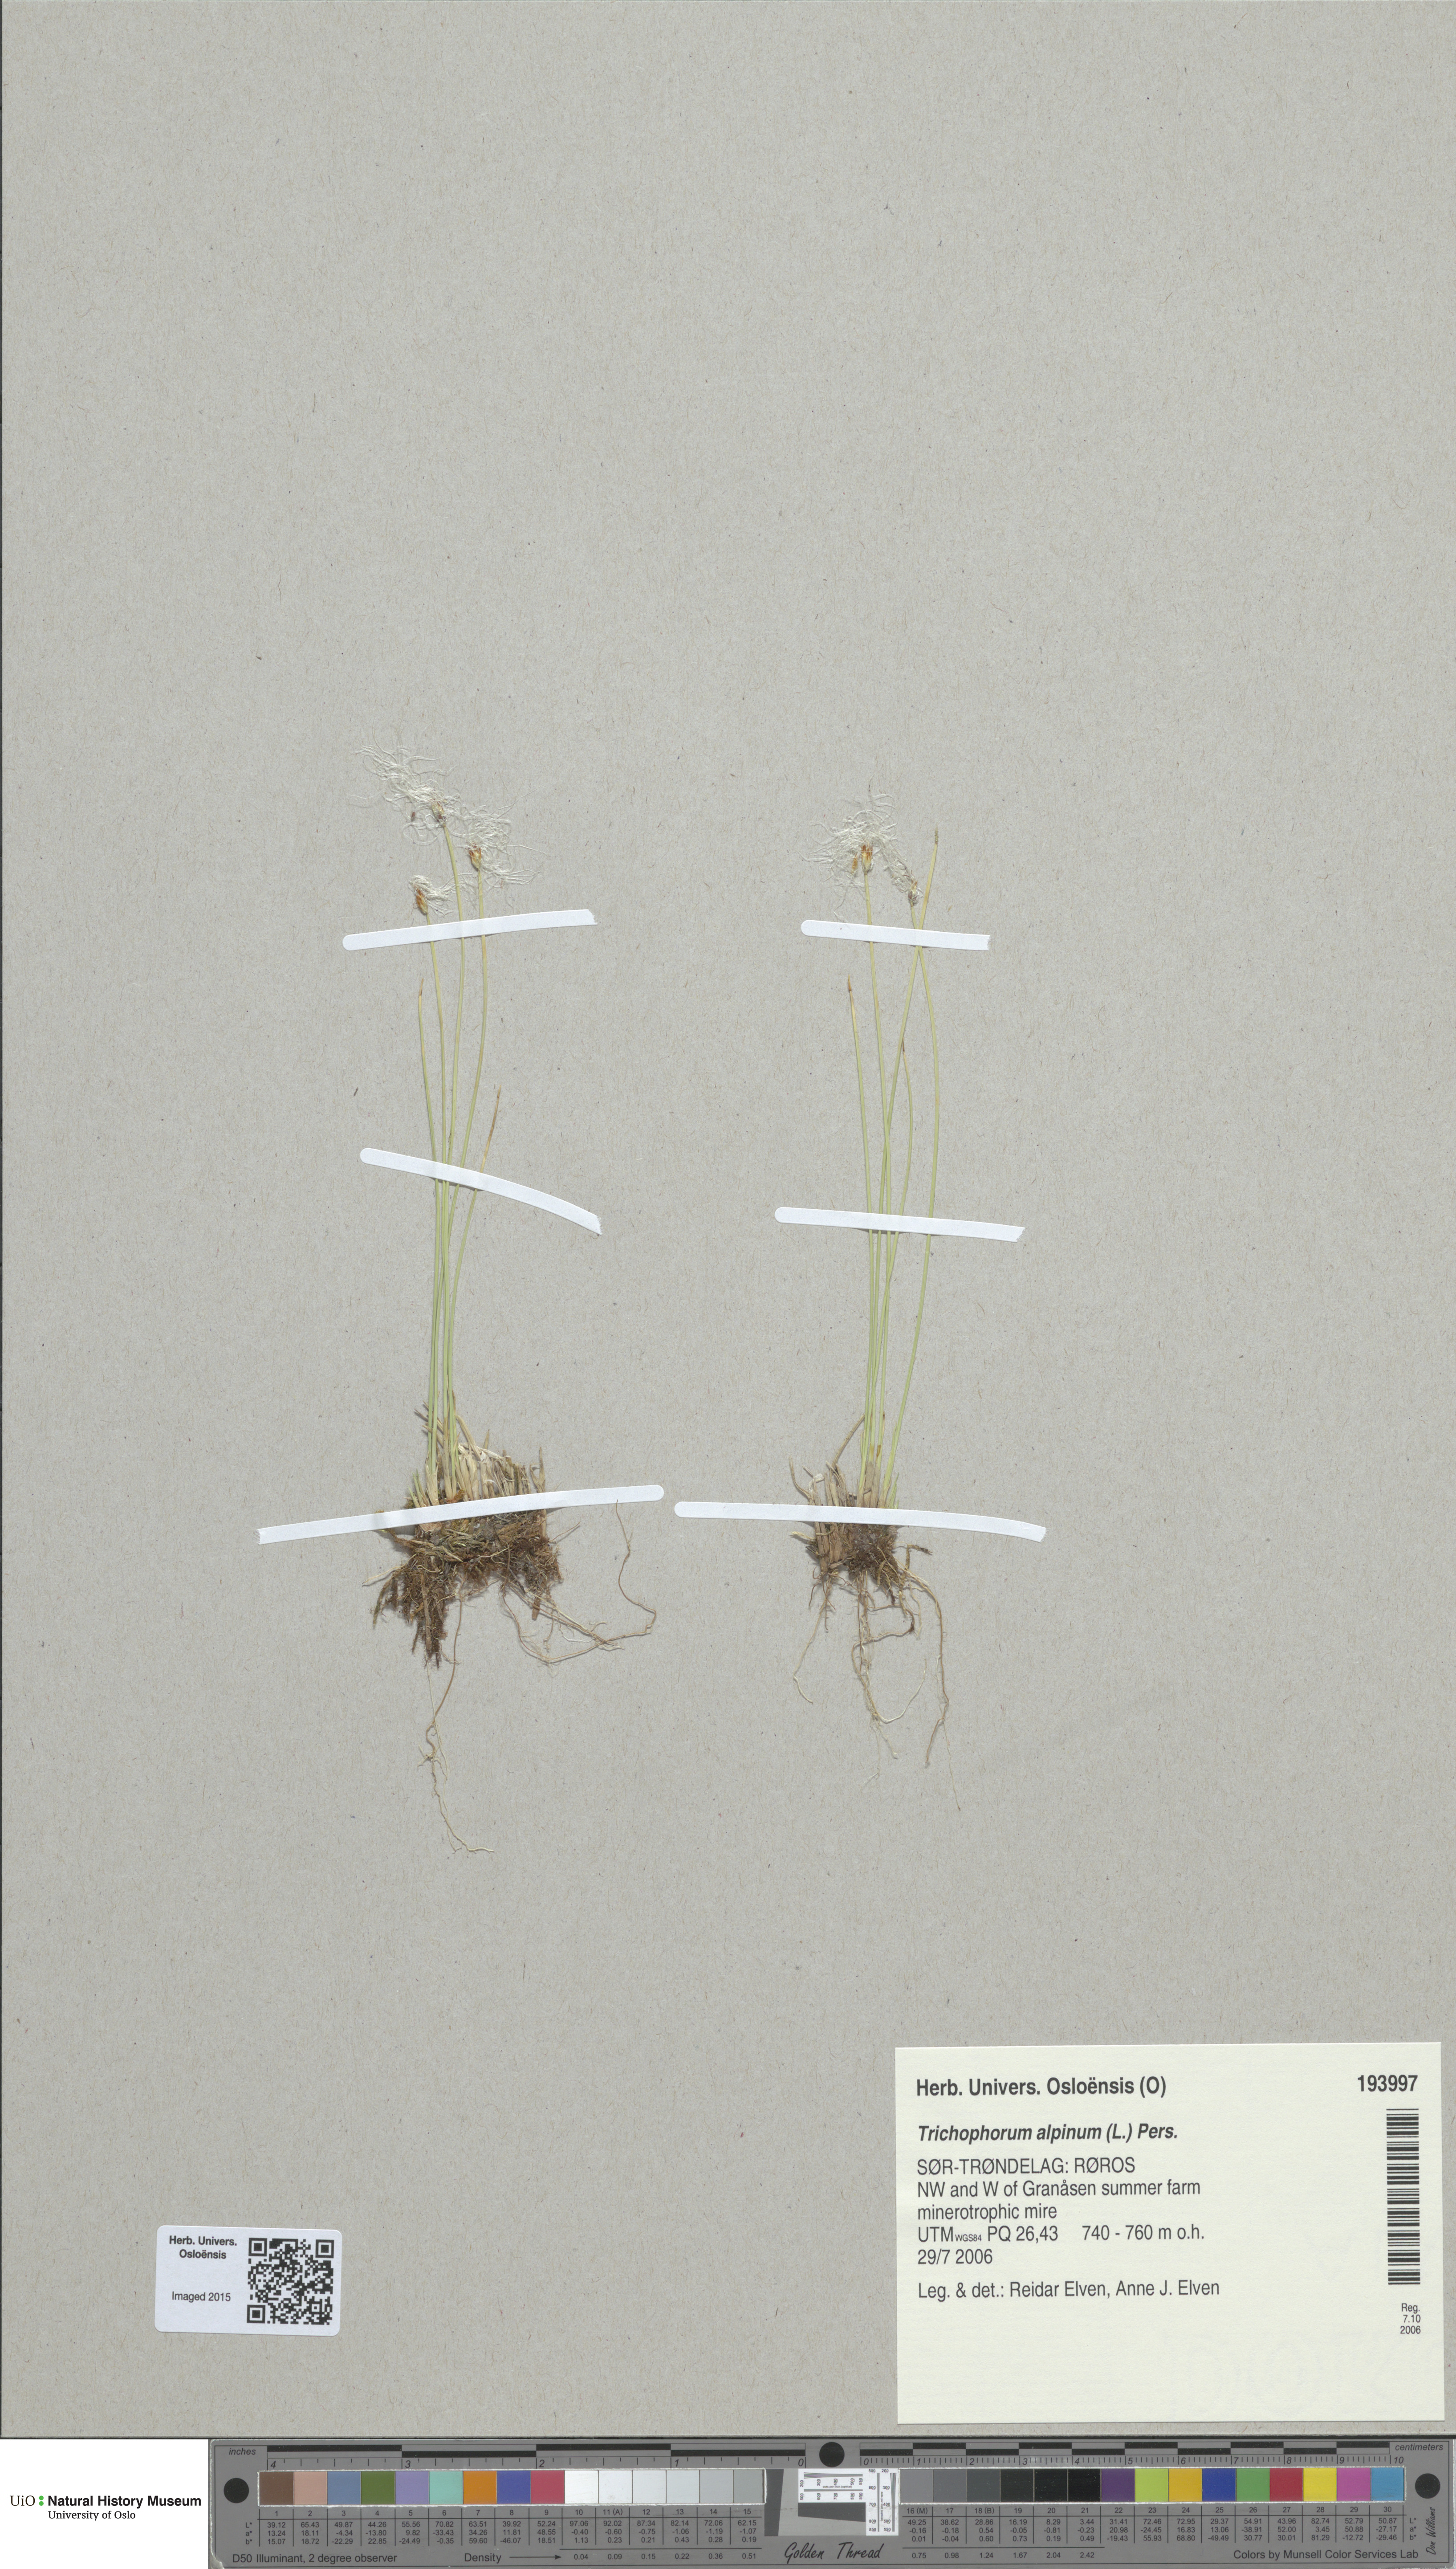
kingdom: Plantae
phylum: Tracheophyta
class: Liliopsida
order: Poales
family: Cyperaceae
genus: Trichophorum
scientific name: Trichophorum alpinum
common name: Alpine bulrush
